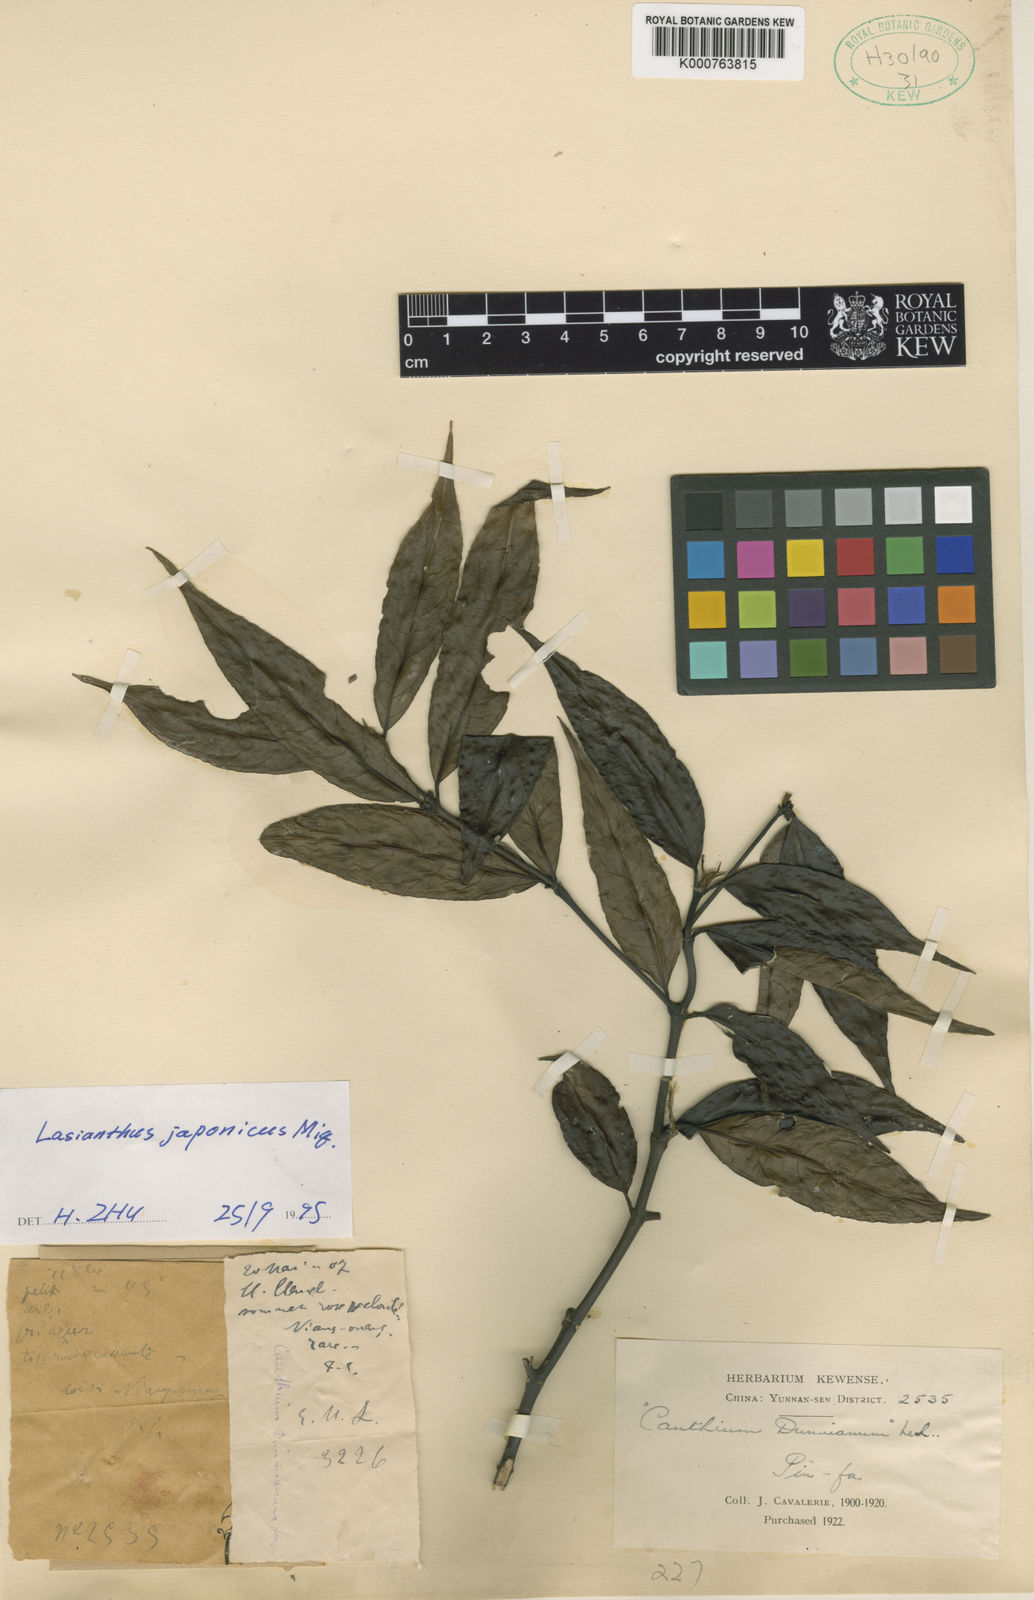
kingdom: Plantae
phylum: Tracheophyta
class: Magnoliopsida
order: Gentianales
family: Rubiaceae
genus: Lasianthus
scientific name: Lasianthus japonicus
